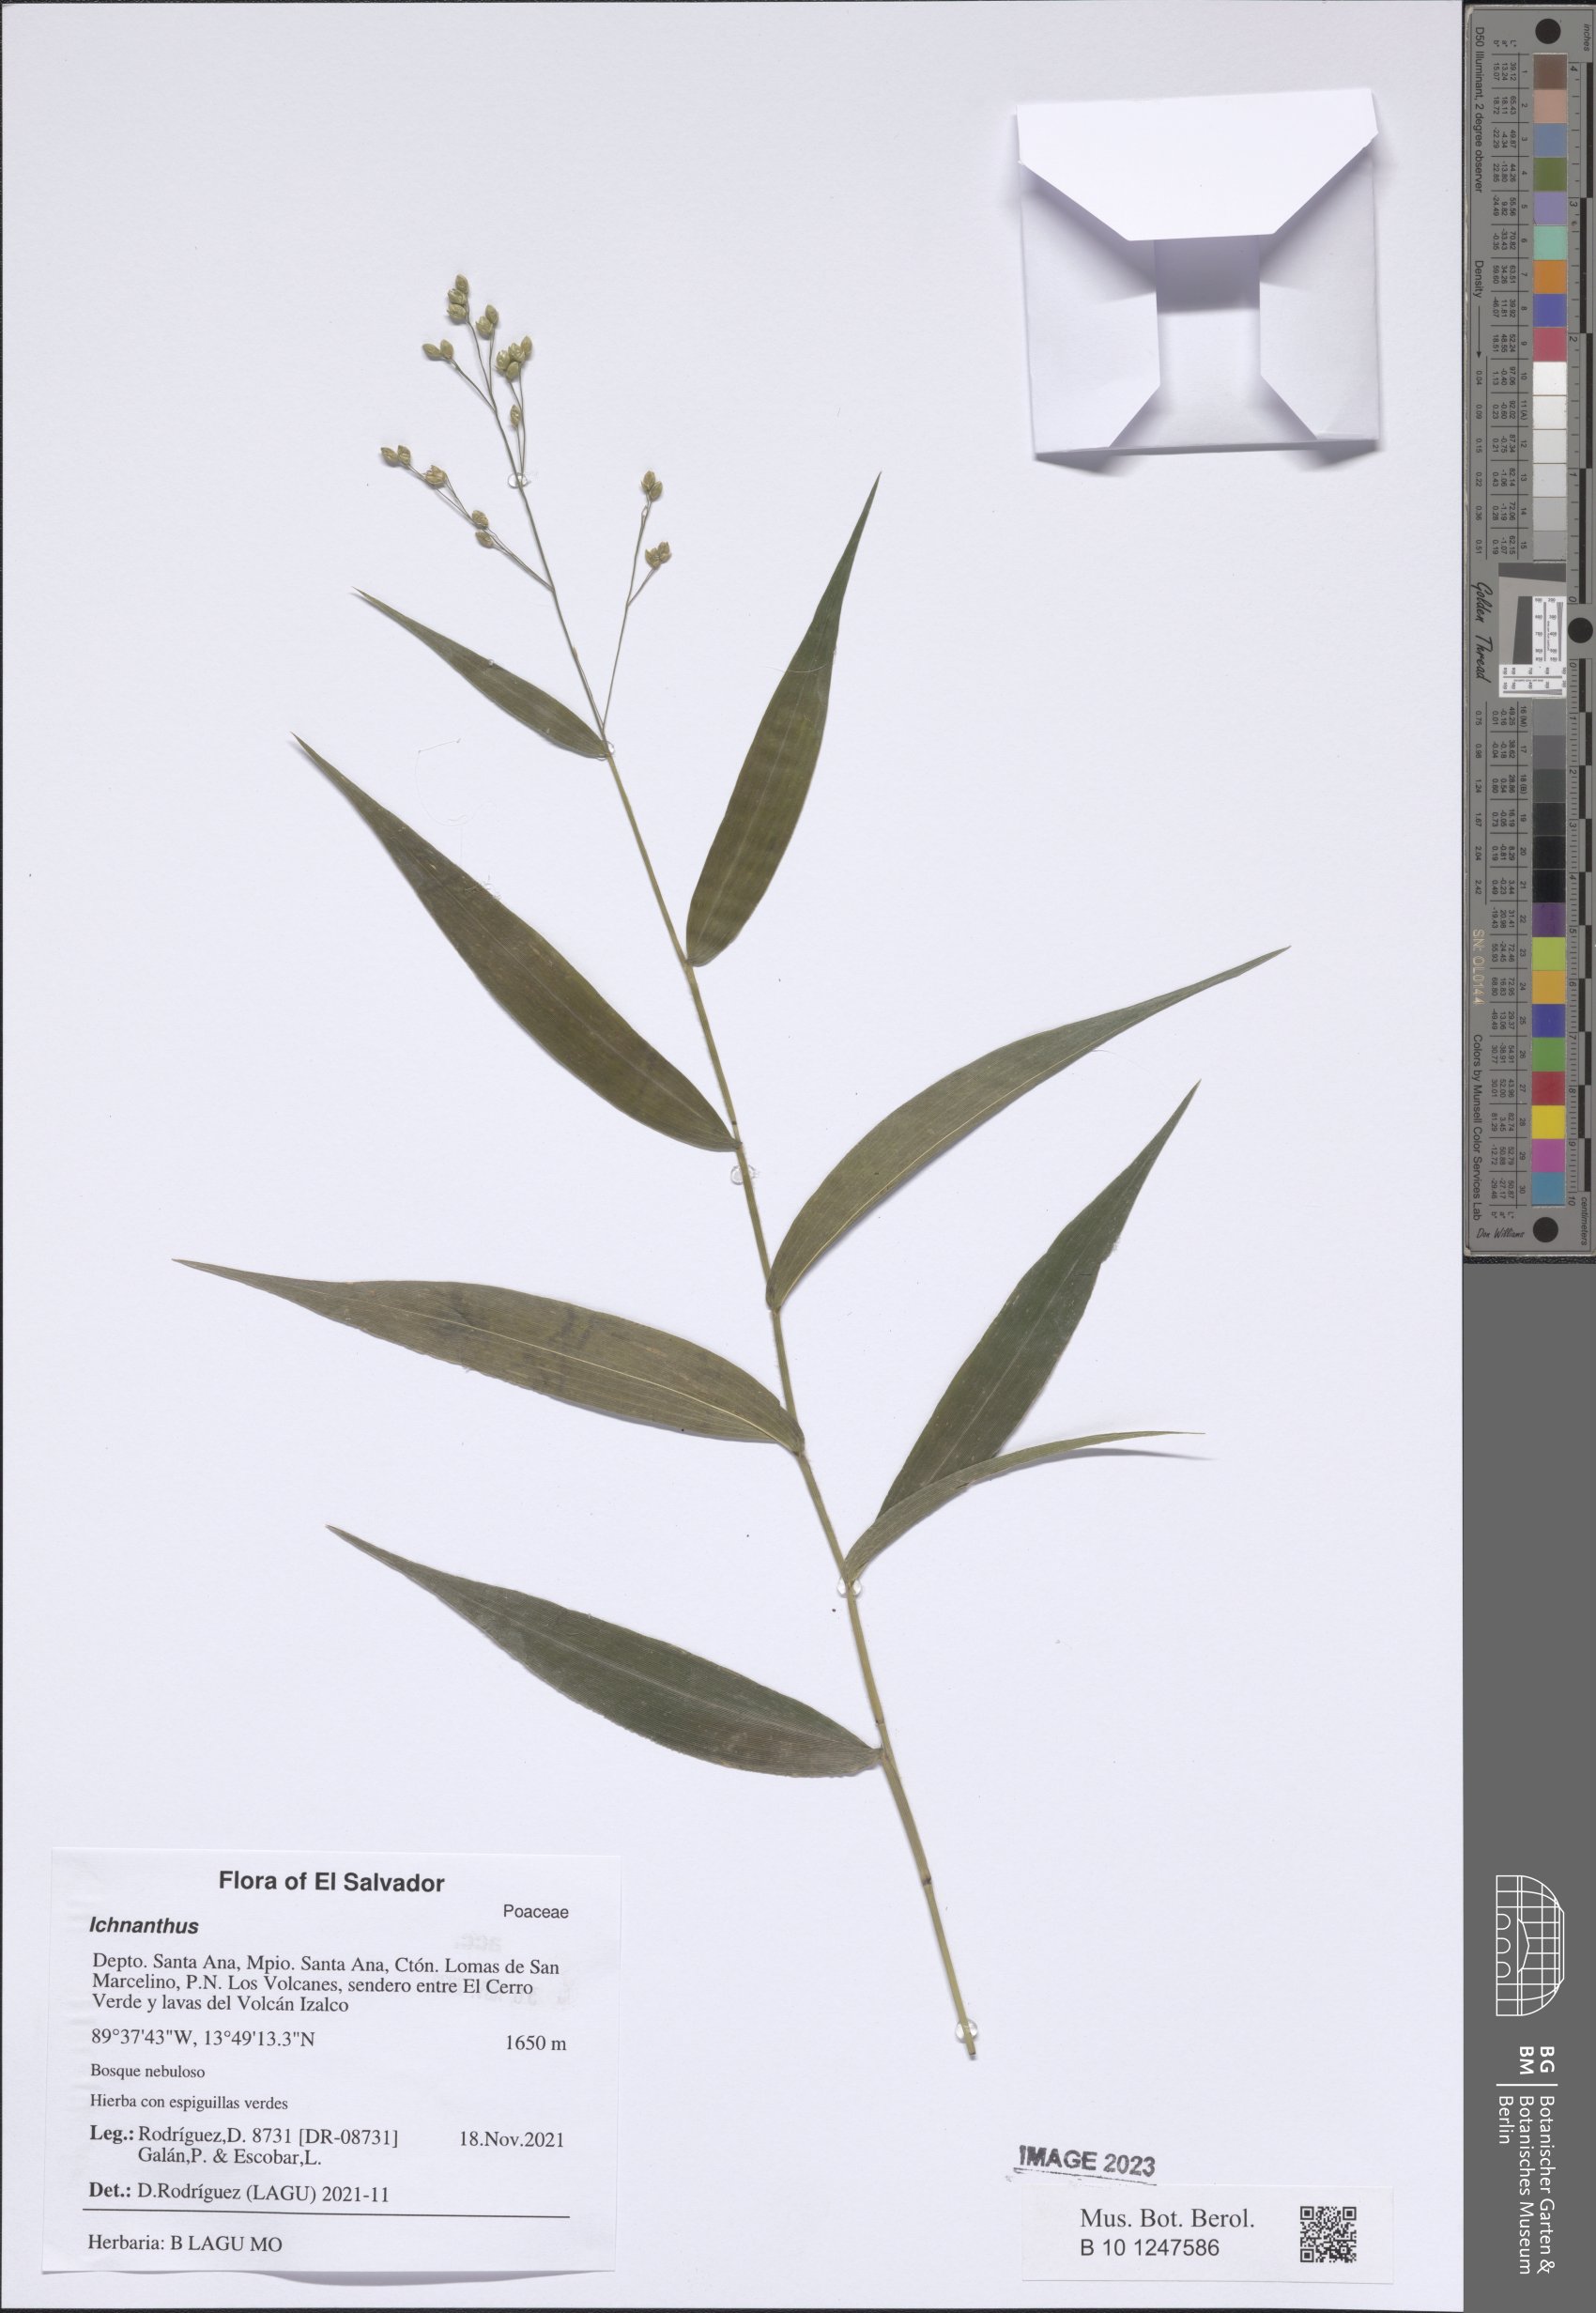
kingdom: Plantae
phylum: Tracheophyta
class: Liliopsida
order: Poales
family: Poaceae
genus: Ichnanthus
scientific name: Ichnanthus
